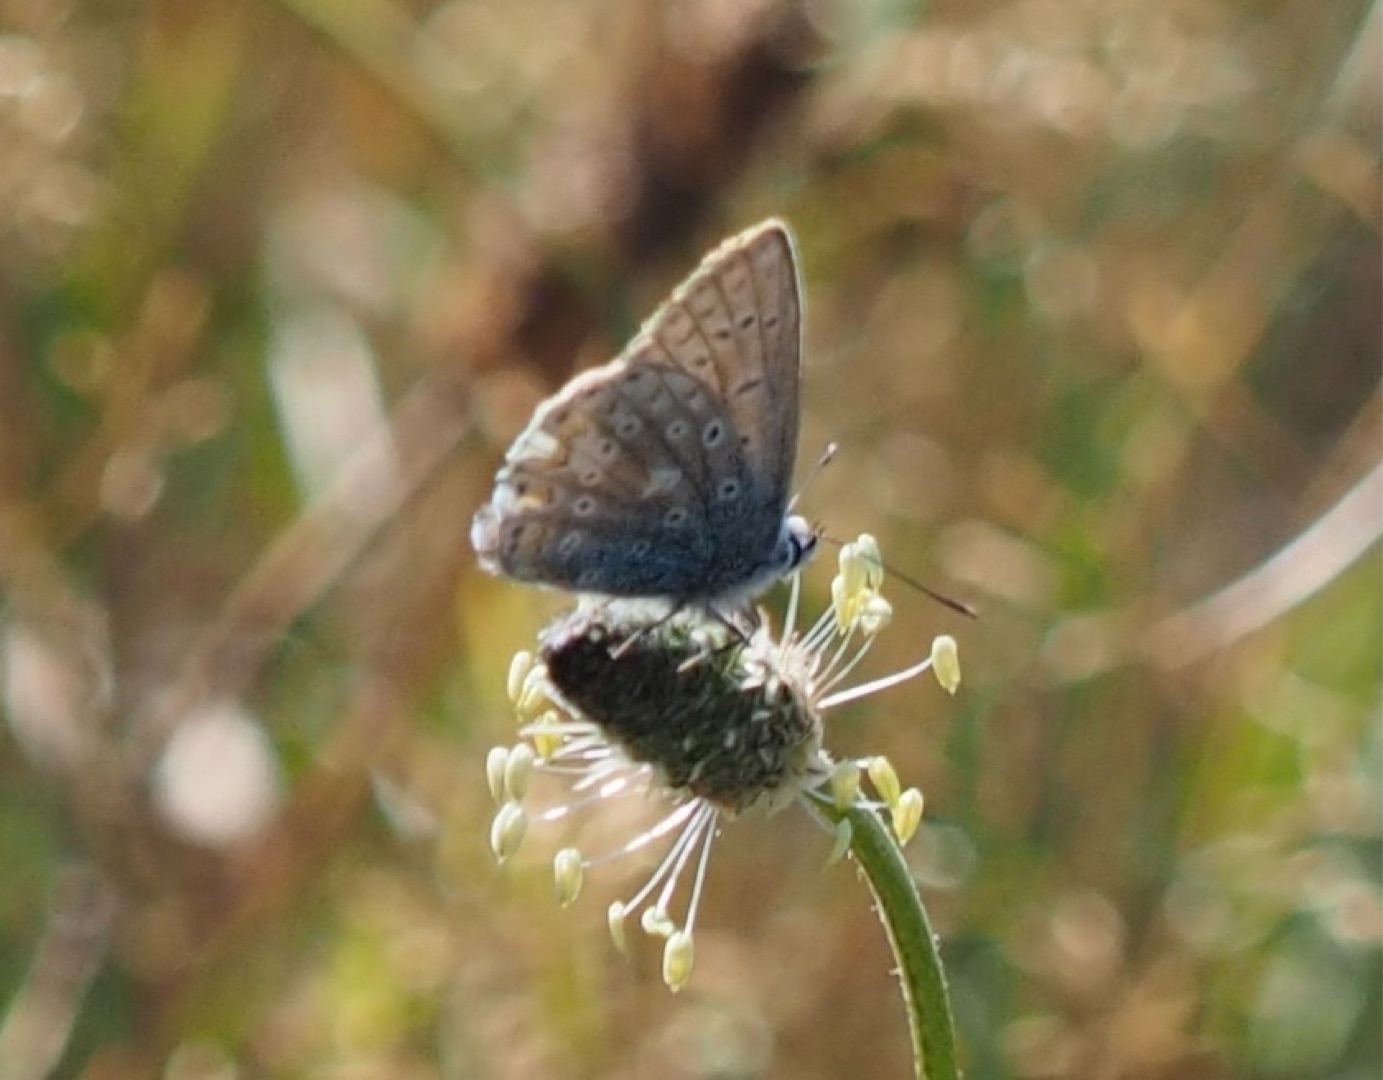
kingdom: Animalia
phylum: Arthropoda
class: Insecta
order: Lepidoptera
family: Lycaenidae
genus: Polyommatus
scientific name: Polyommatus icarus
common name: Almindelig blåfugl
